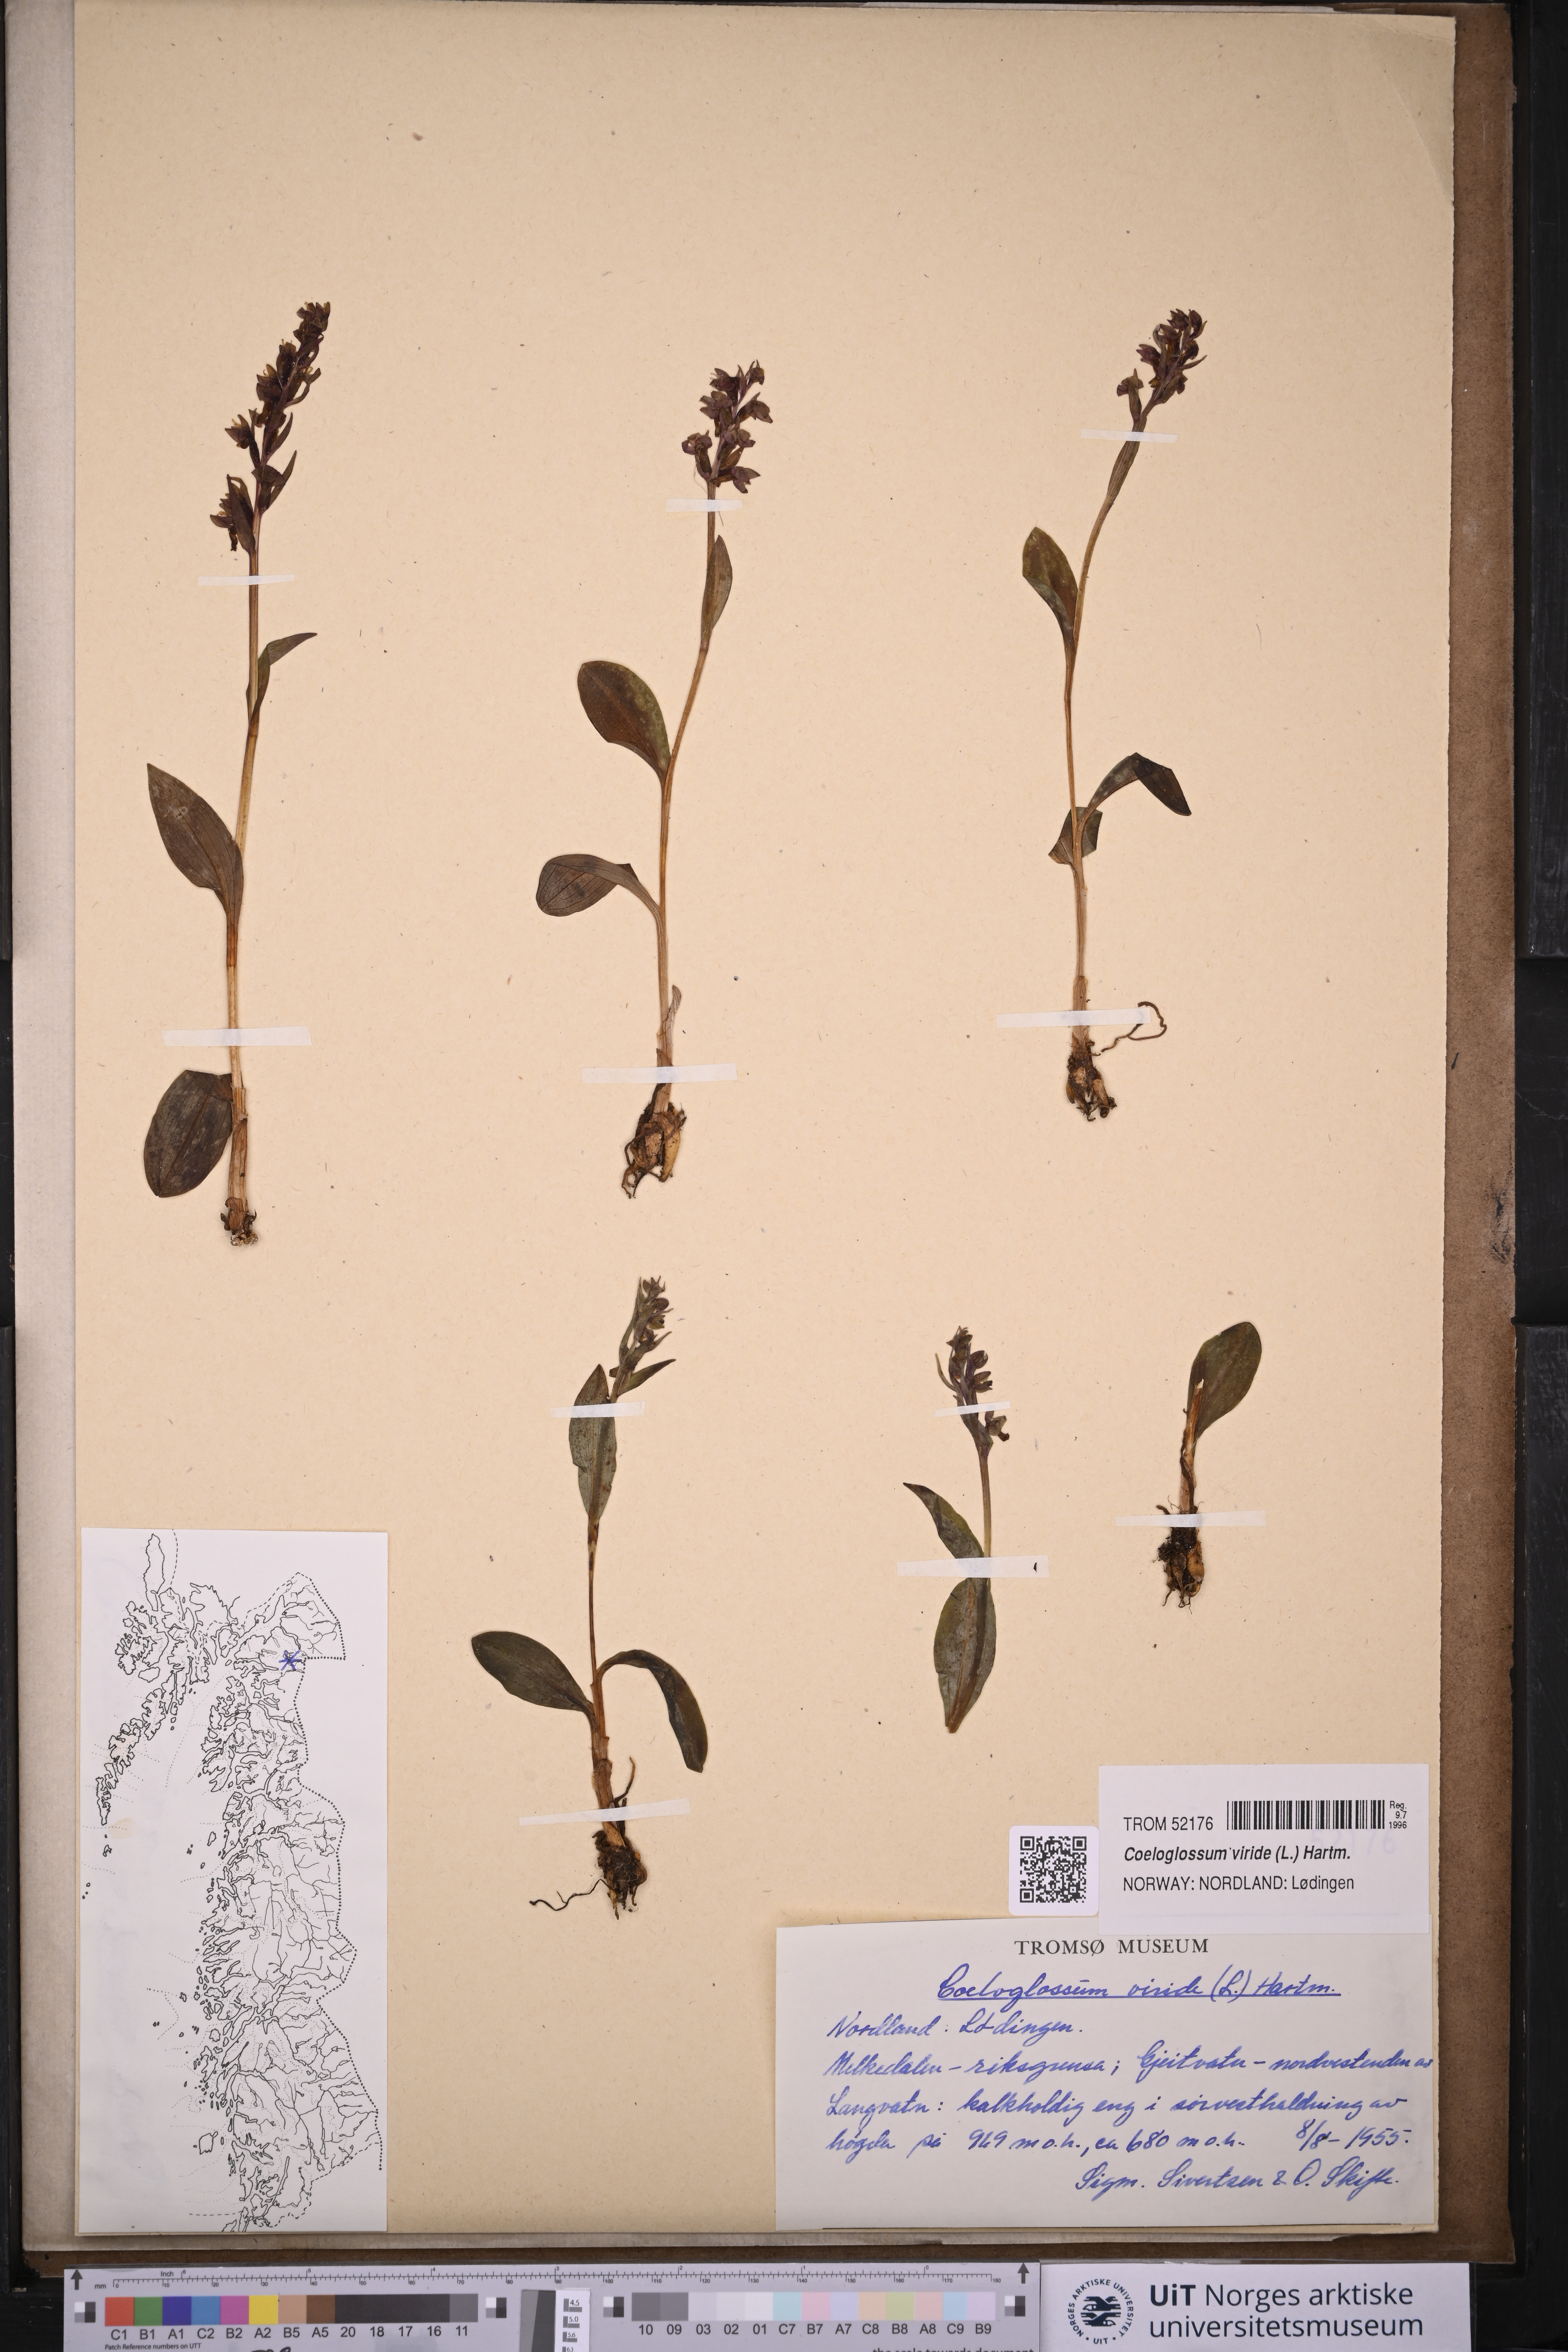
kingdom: Plantae
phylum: Tracheophyta
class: Liliopsida
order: Asparagales
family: Orchidaceae
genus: Dactylorhiza
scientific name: Dactylorhiza viridis
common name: Longbract frog orchid
